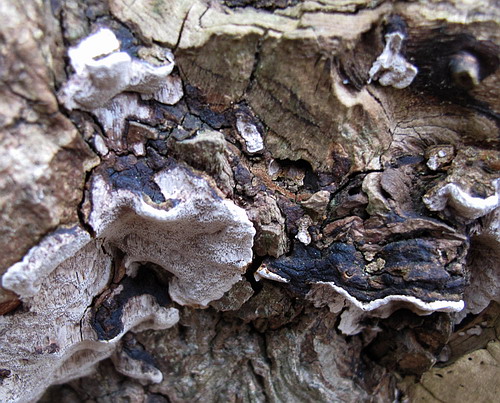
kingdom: Fungi
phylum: Basidiomycota
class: Agaricomycetes
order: Hymenochaetales
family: Hymenochaetaceae
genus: Phellinopsis
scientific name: Phellinopsis conchata
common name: pile-ildporesvamp
